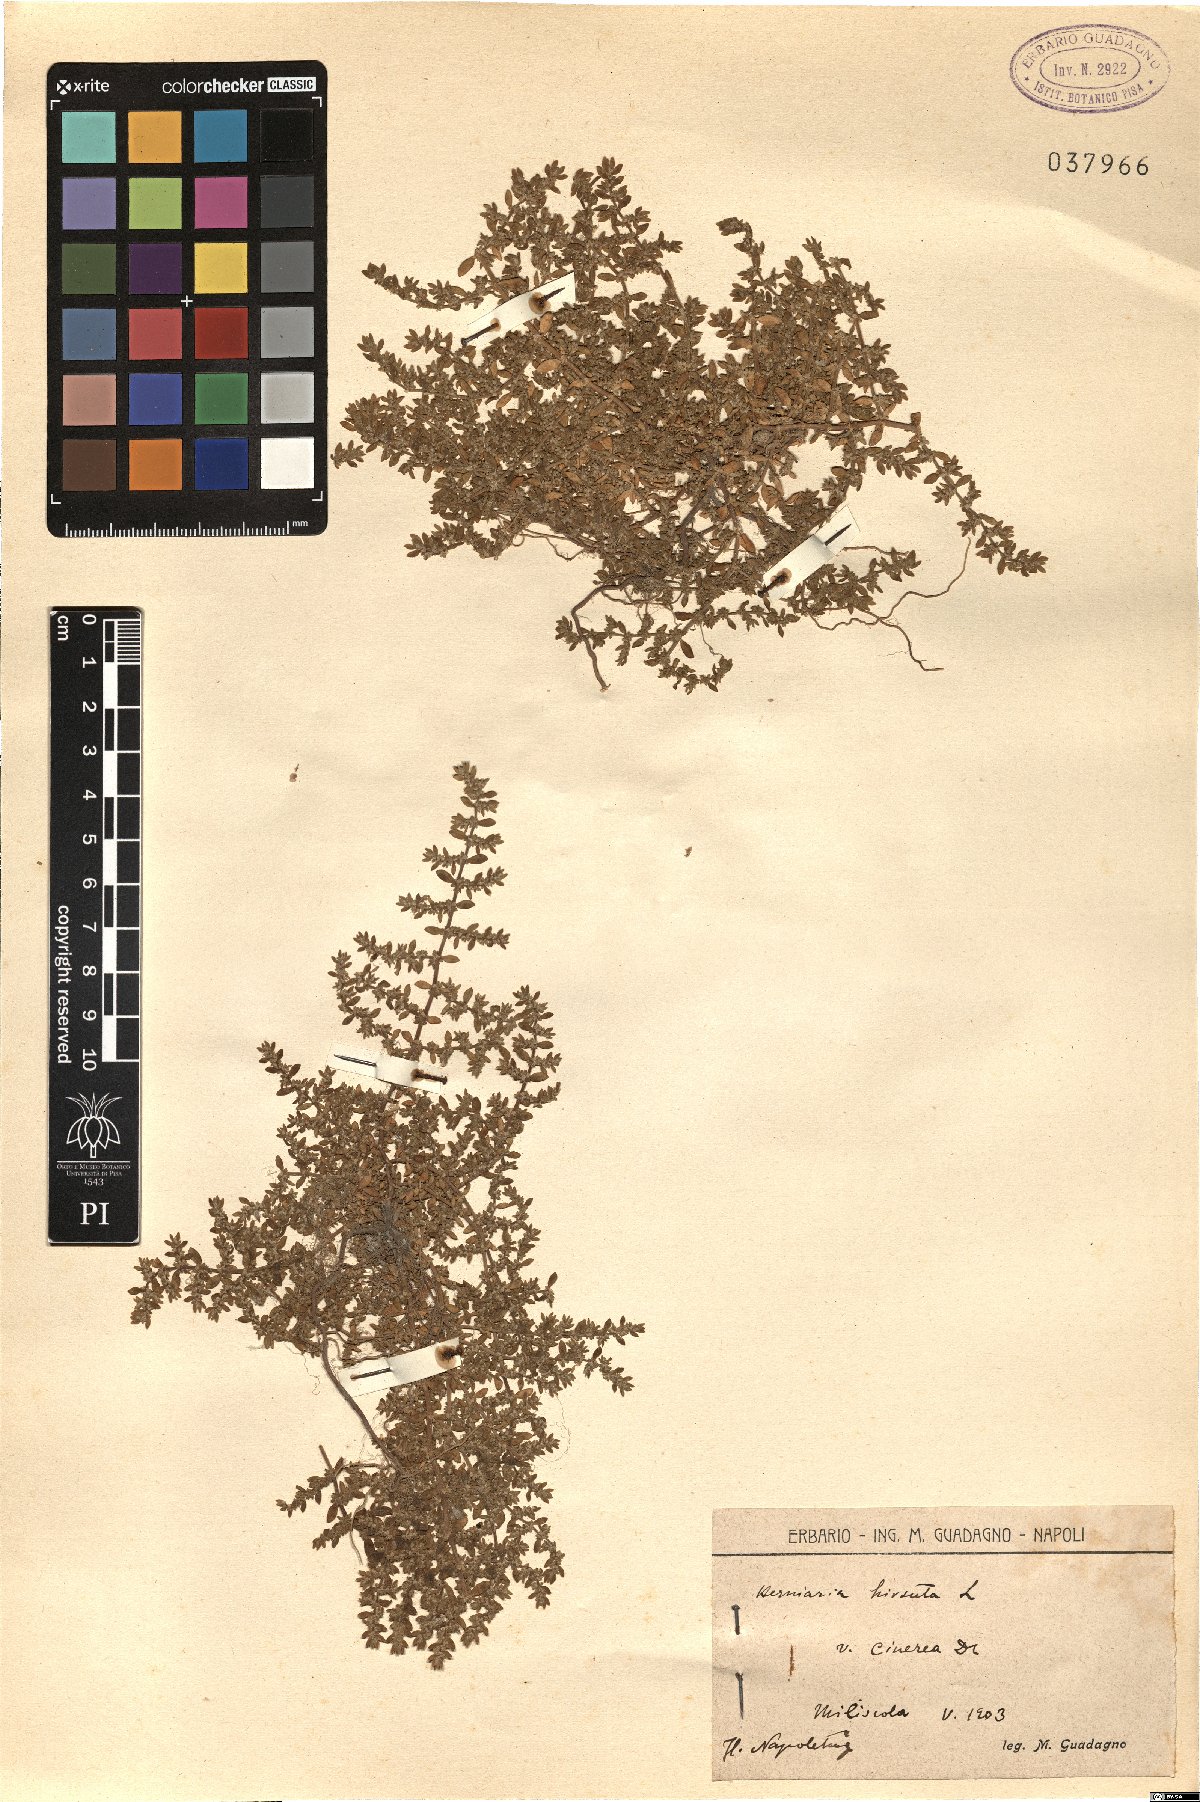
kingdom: Plantae
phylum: Tracheophyta
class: Magnoliopsida
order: Caryophyllales
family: Caryophyllaceae
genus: Herniaria
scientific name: Herniaria cinerea
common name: Hairy rupturewort
